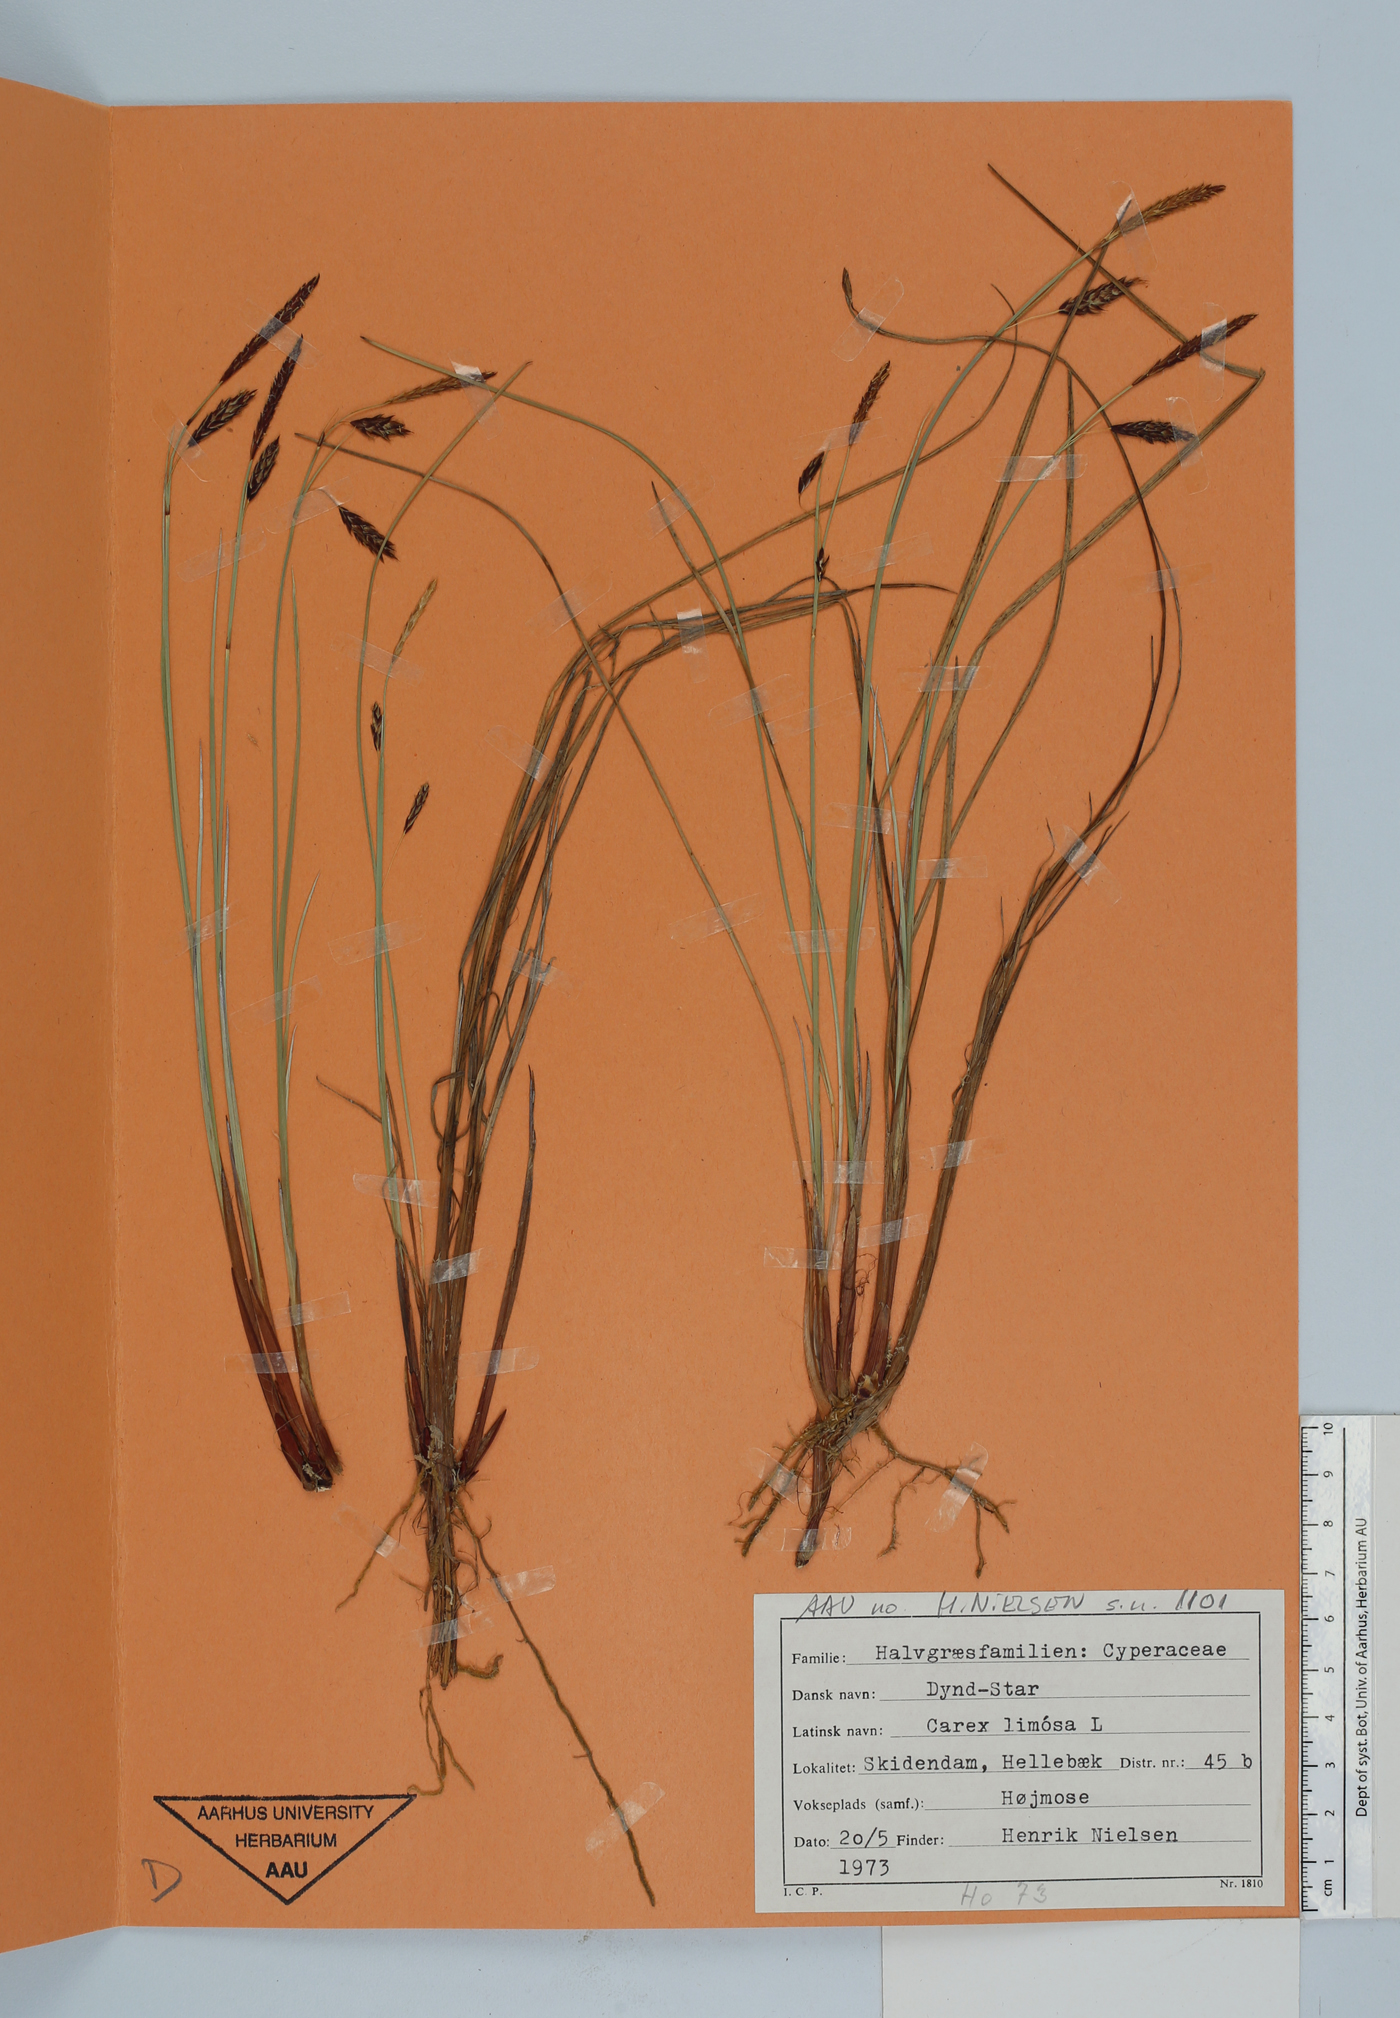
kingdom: Plantae
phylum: Tracheophyta
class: Liliopsida
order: Poales
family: Cyperaceae
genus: Carex
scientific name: Carex limosa
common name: Bog sedge
